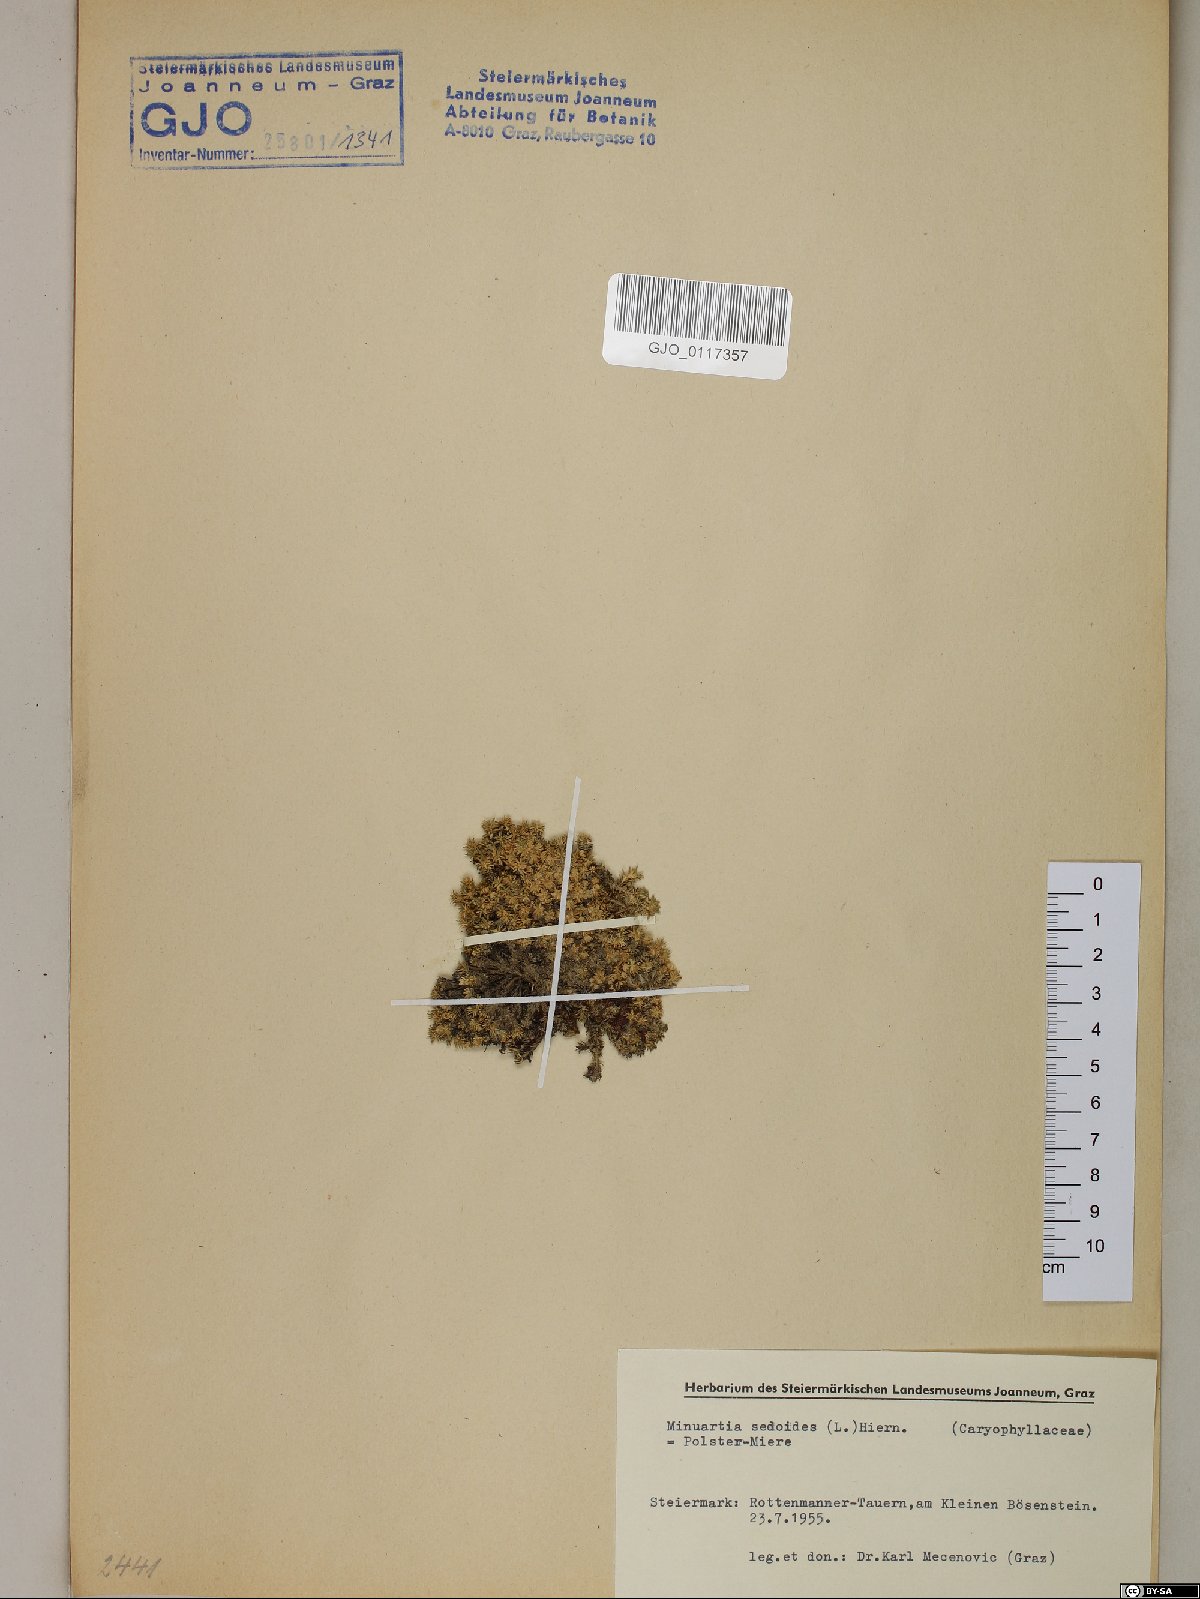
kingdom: Plantae
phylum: Tracheophyta
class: Magnoliopsida
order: Caryophyllales
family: Caryophyllaceae
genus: Cherleria
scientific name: Cherleria sedoides
